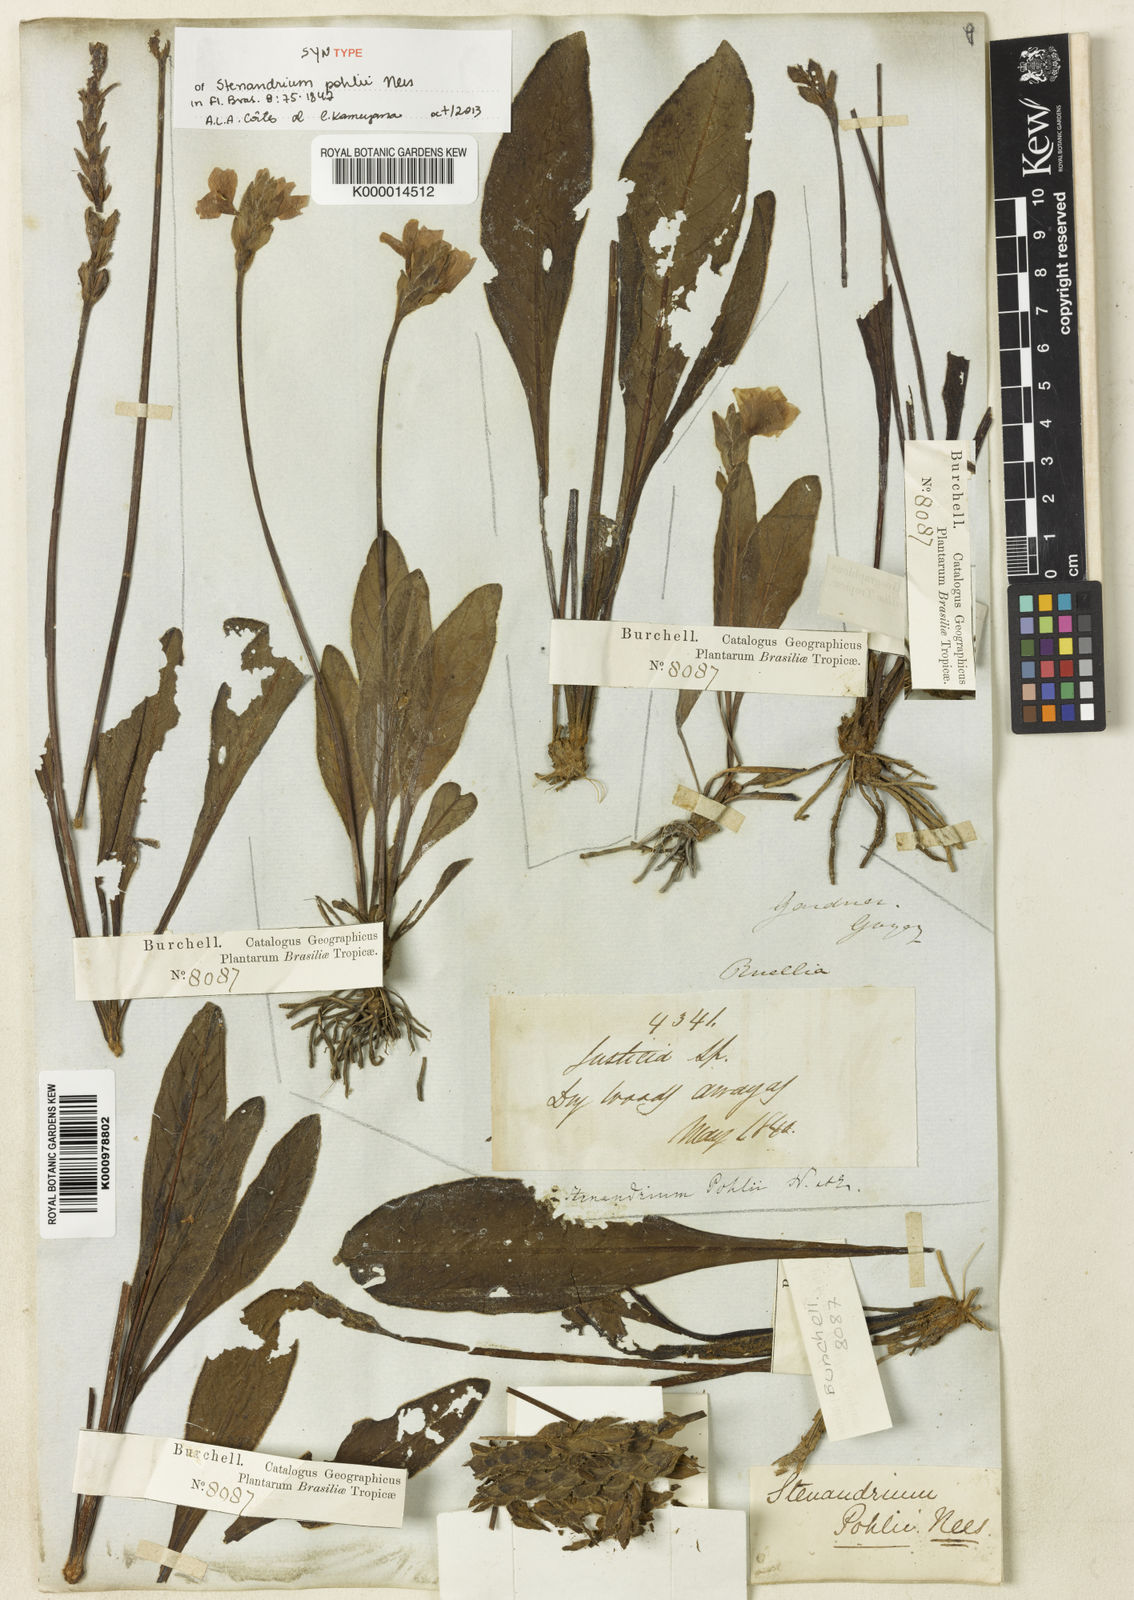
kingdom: Plantae
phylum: Tracheophyta
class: Magnoliopsida
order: Lamiales
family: Acanthaceae
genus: Stenandrium
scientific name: Stenandrium pohlii
